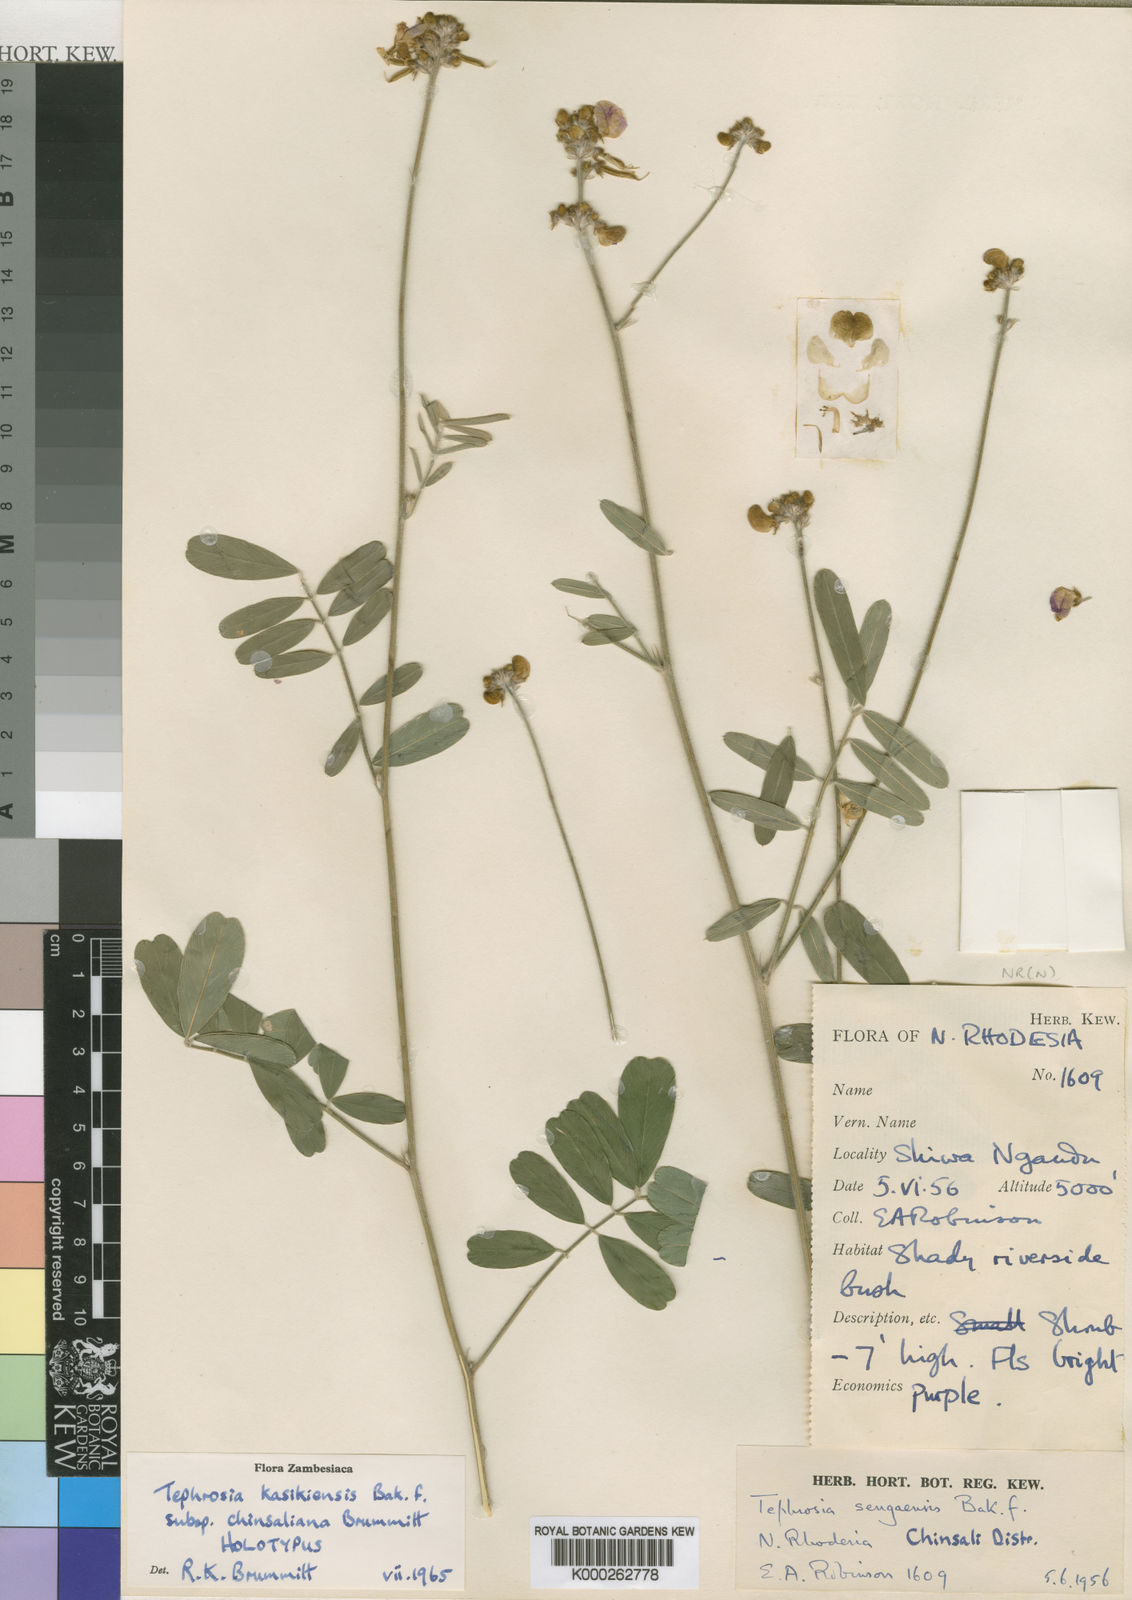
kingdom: Plantae
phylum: Tracheophyta
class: Magnoliopsida
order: Fabales
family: Fabaceae
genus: Tephrosia
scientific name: Tephrosia kasikiensis
